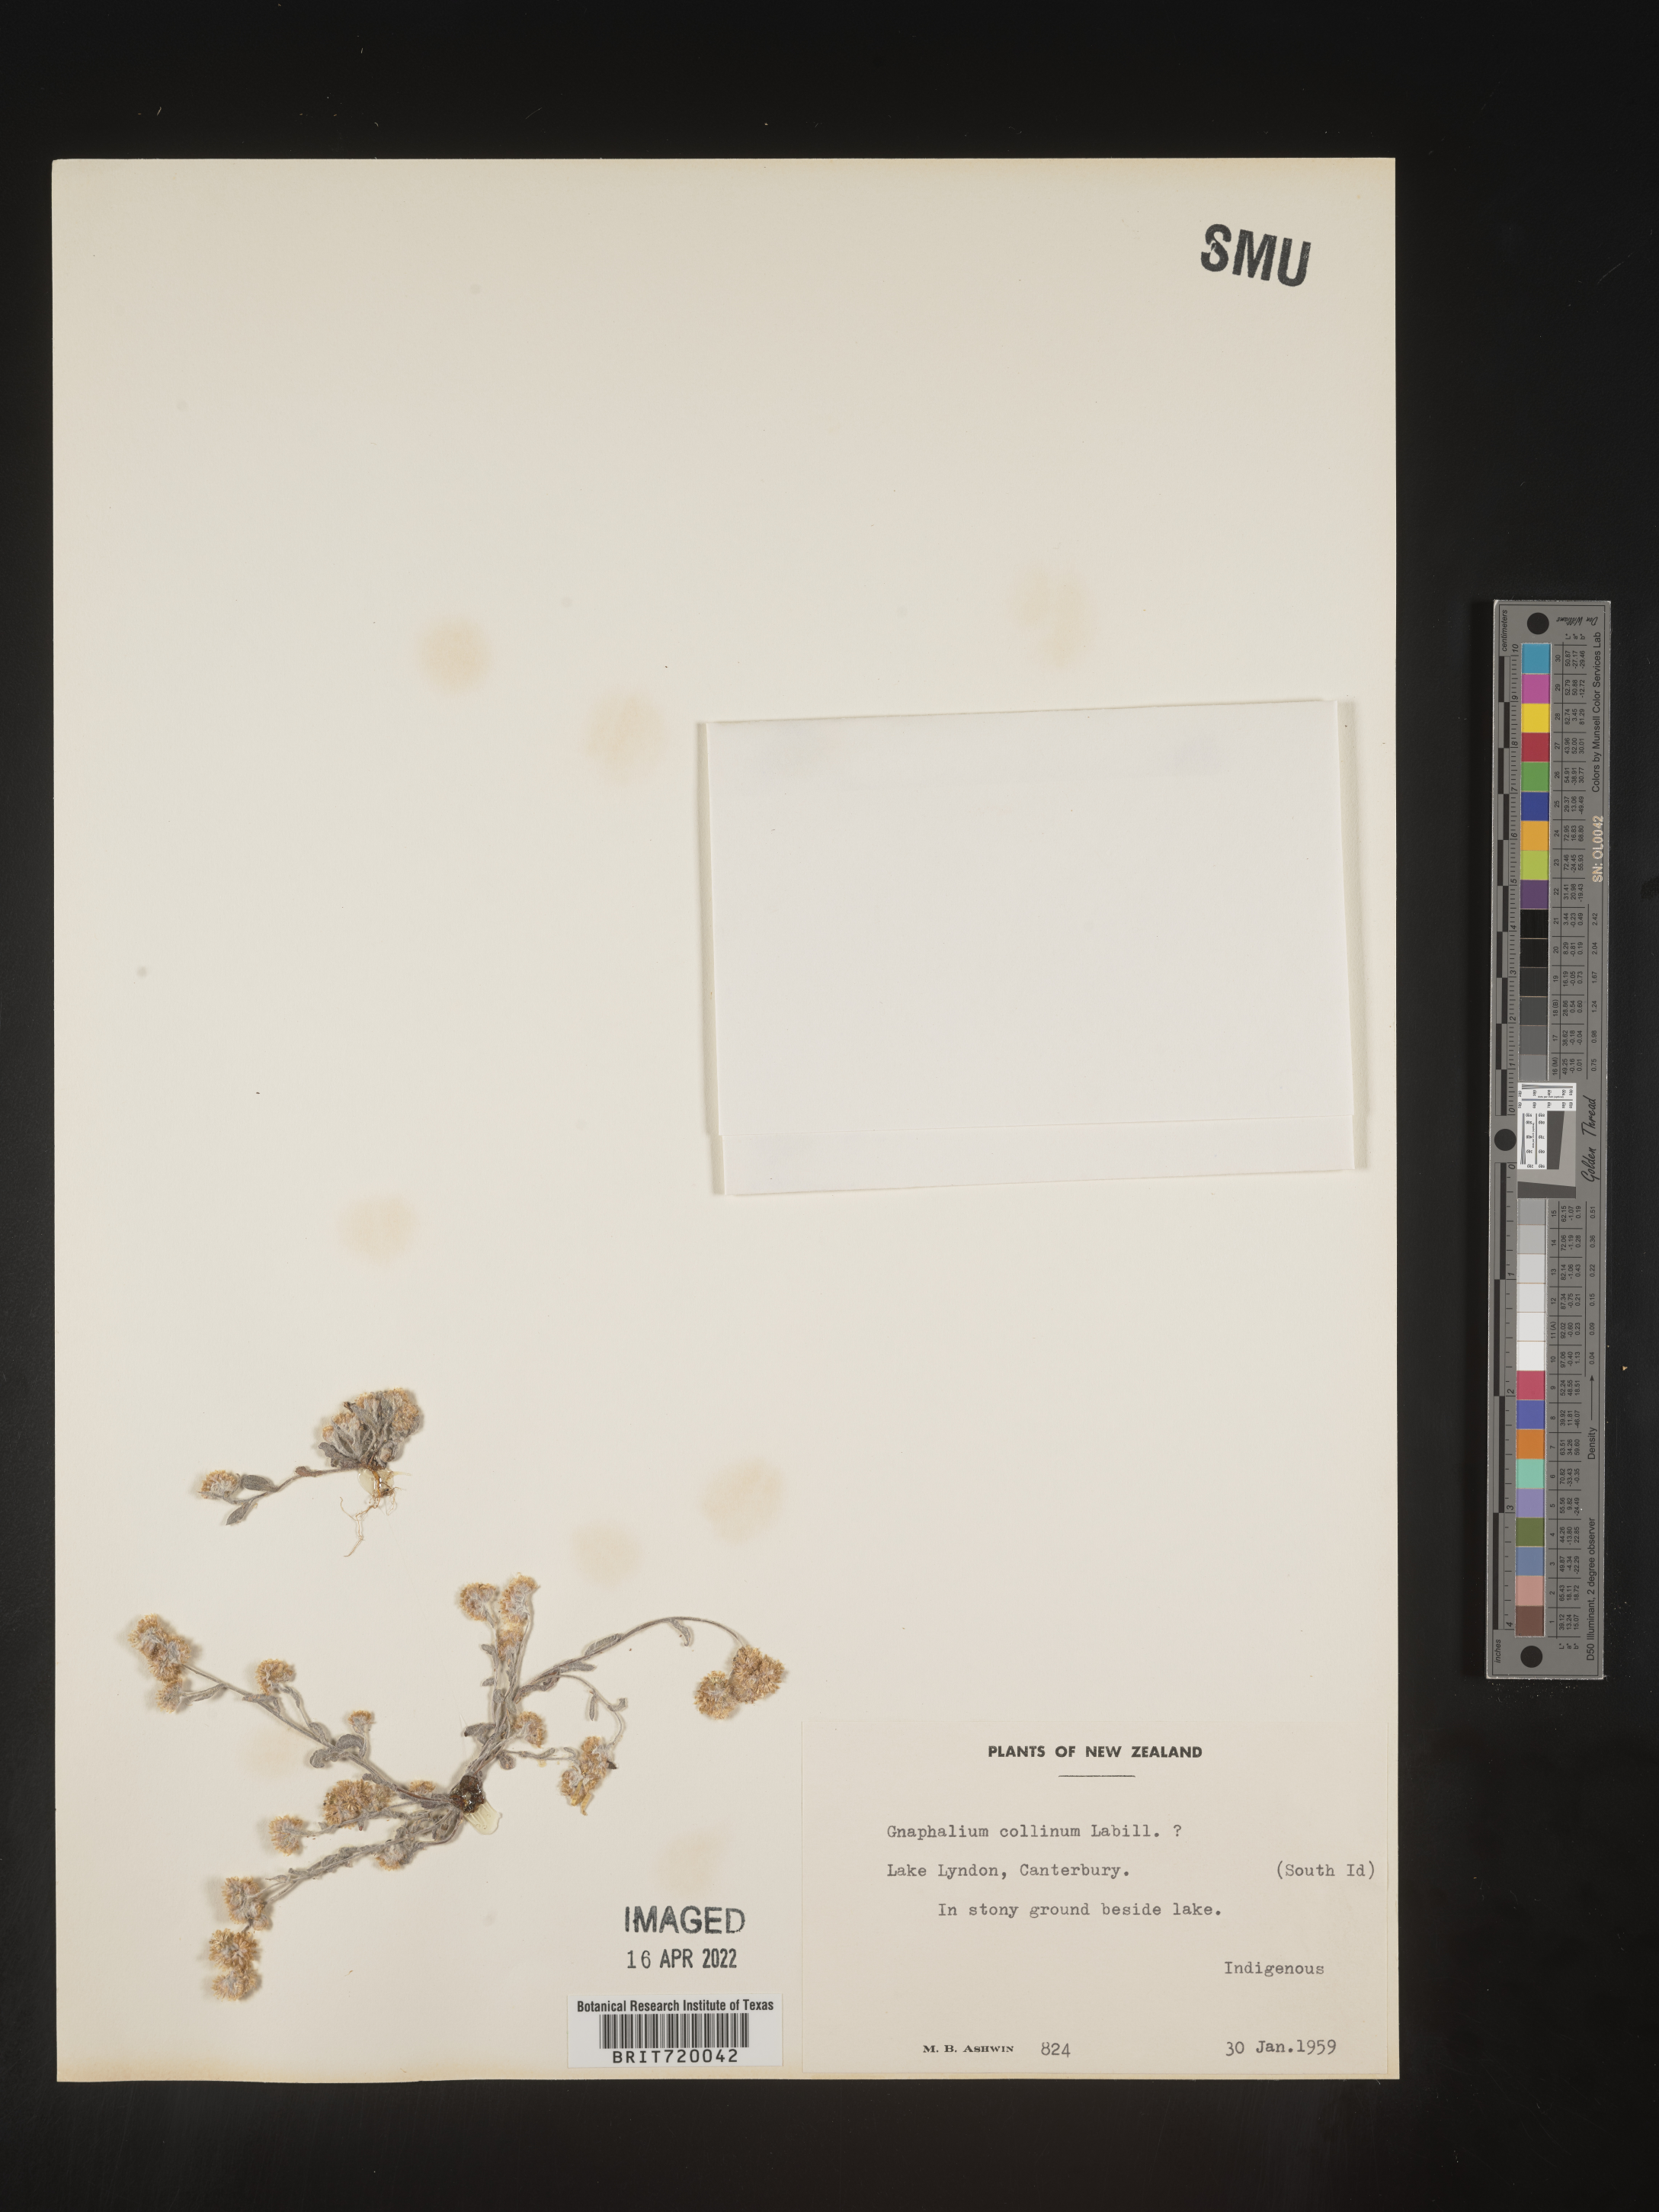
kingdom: Plantae
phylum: Tracheophyta
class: Magnoliopsida
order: Asterales
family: Asteraceae
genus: Gnaphalium
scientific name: Gnaphalium
